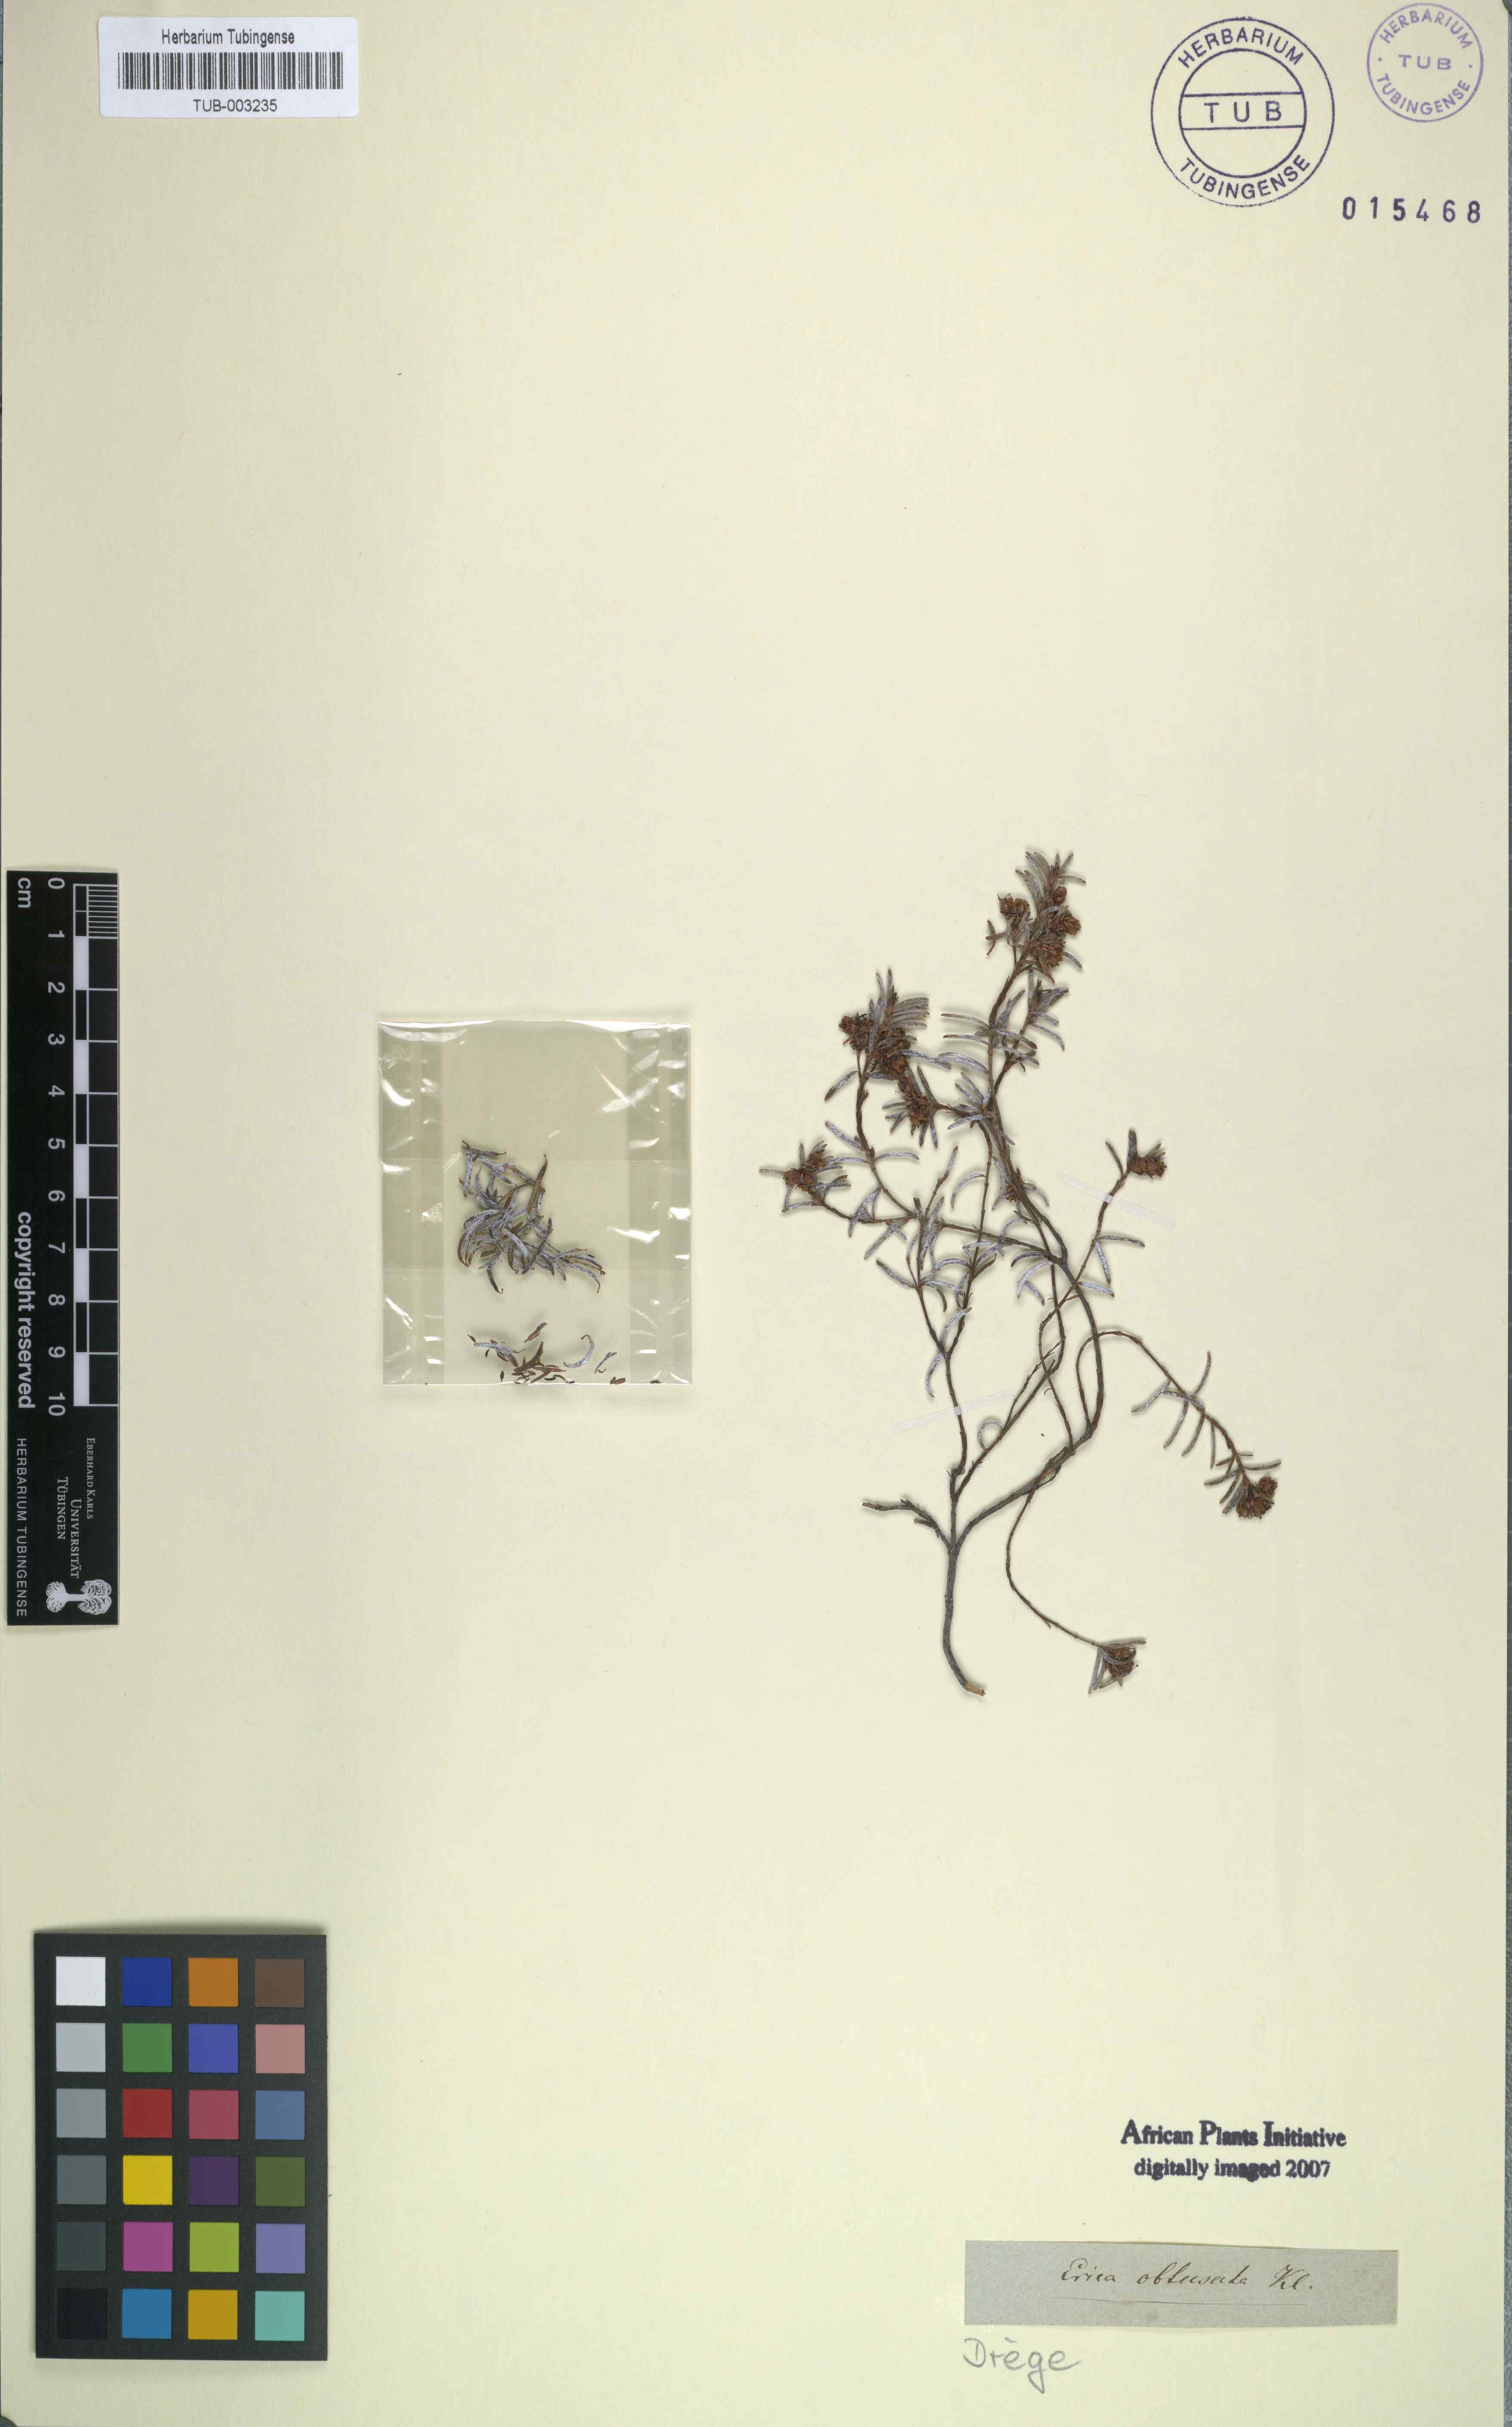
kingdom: Plantae
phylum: Tracheophyta
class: Magnoliopsida
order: Ericales
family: Ericaceae
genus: Erica
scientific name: Erica obtusata
